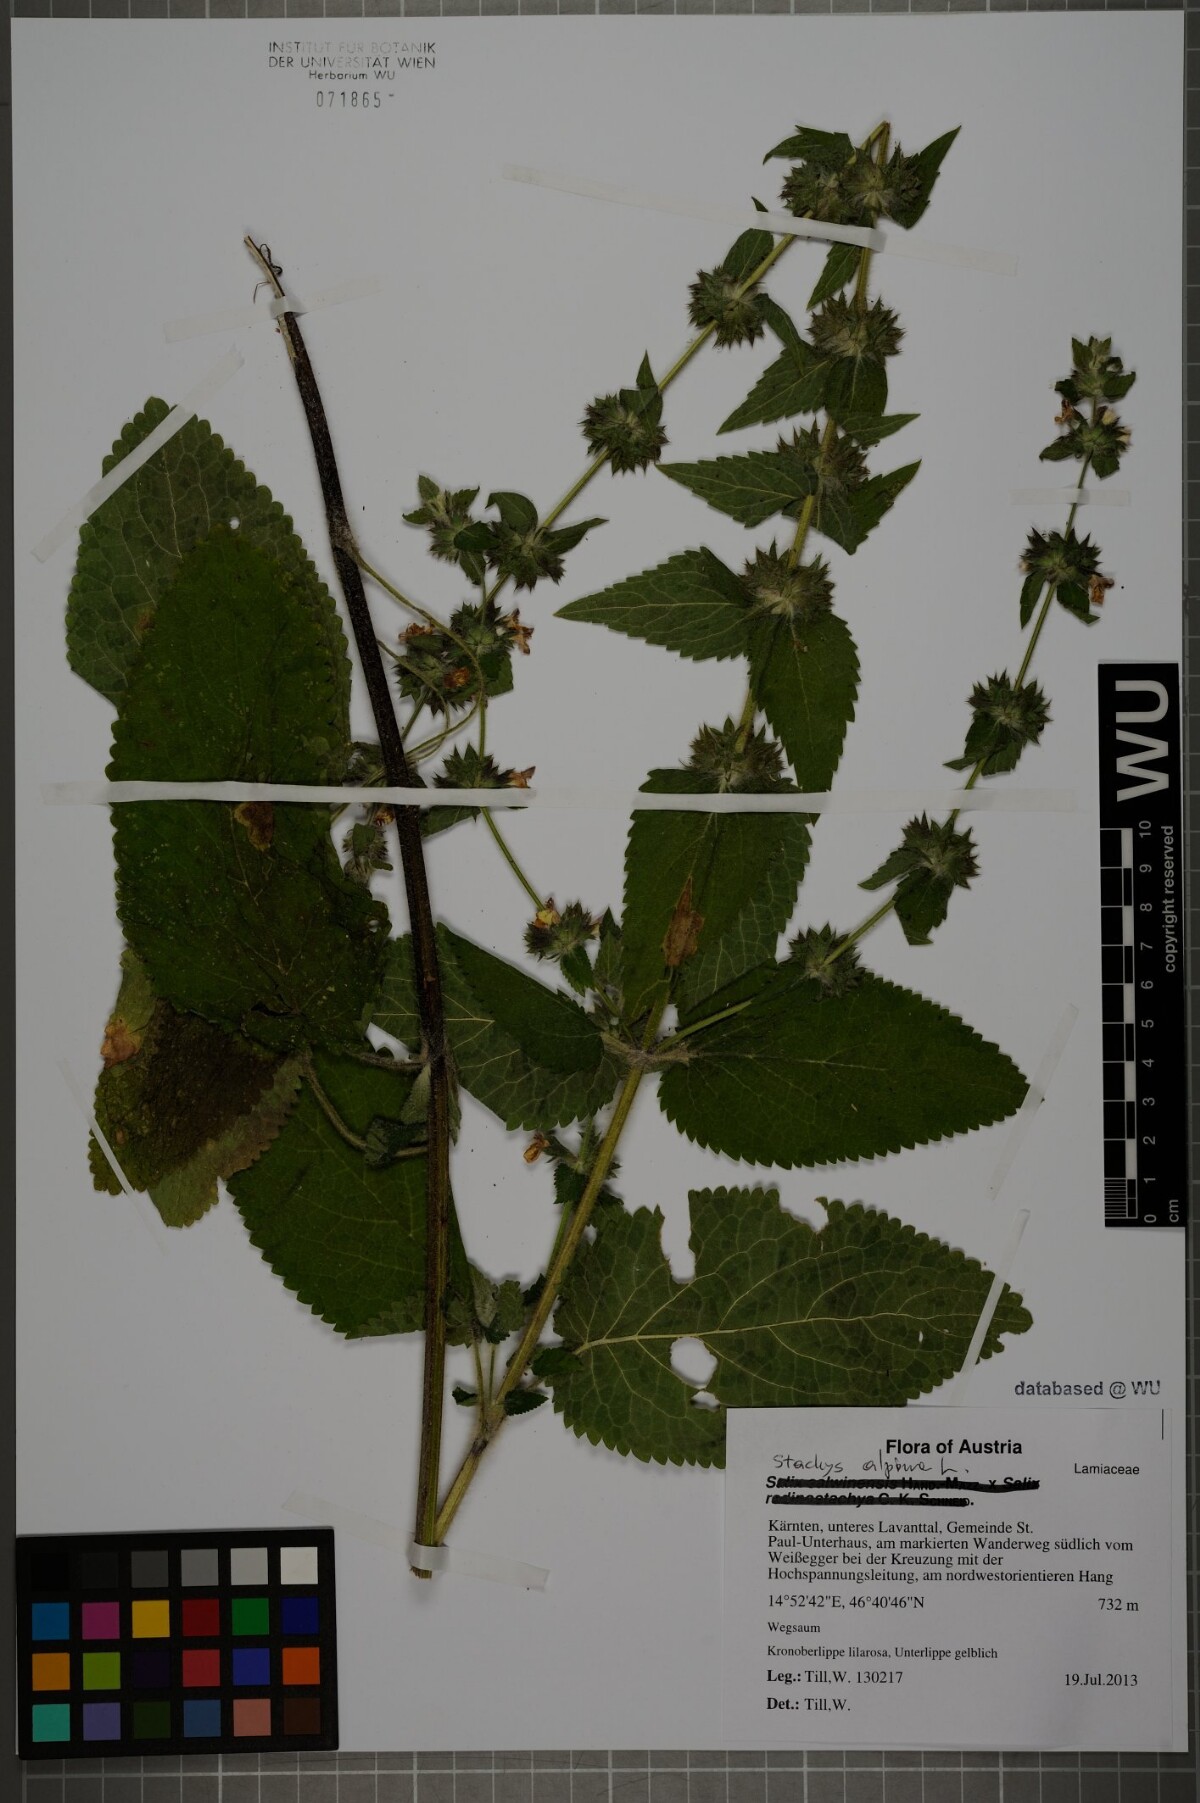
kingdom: Plantae
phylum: Tracheophyta
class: Magnoliopsida
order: Lamiales
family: Lamiaceae
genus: Stachys
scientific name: Stachys alpina
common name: Limestone woundwort
